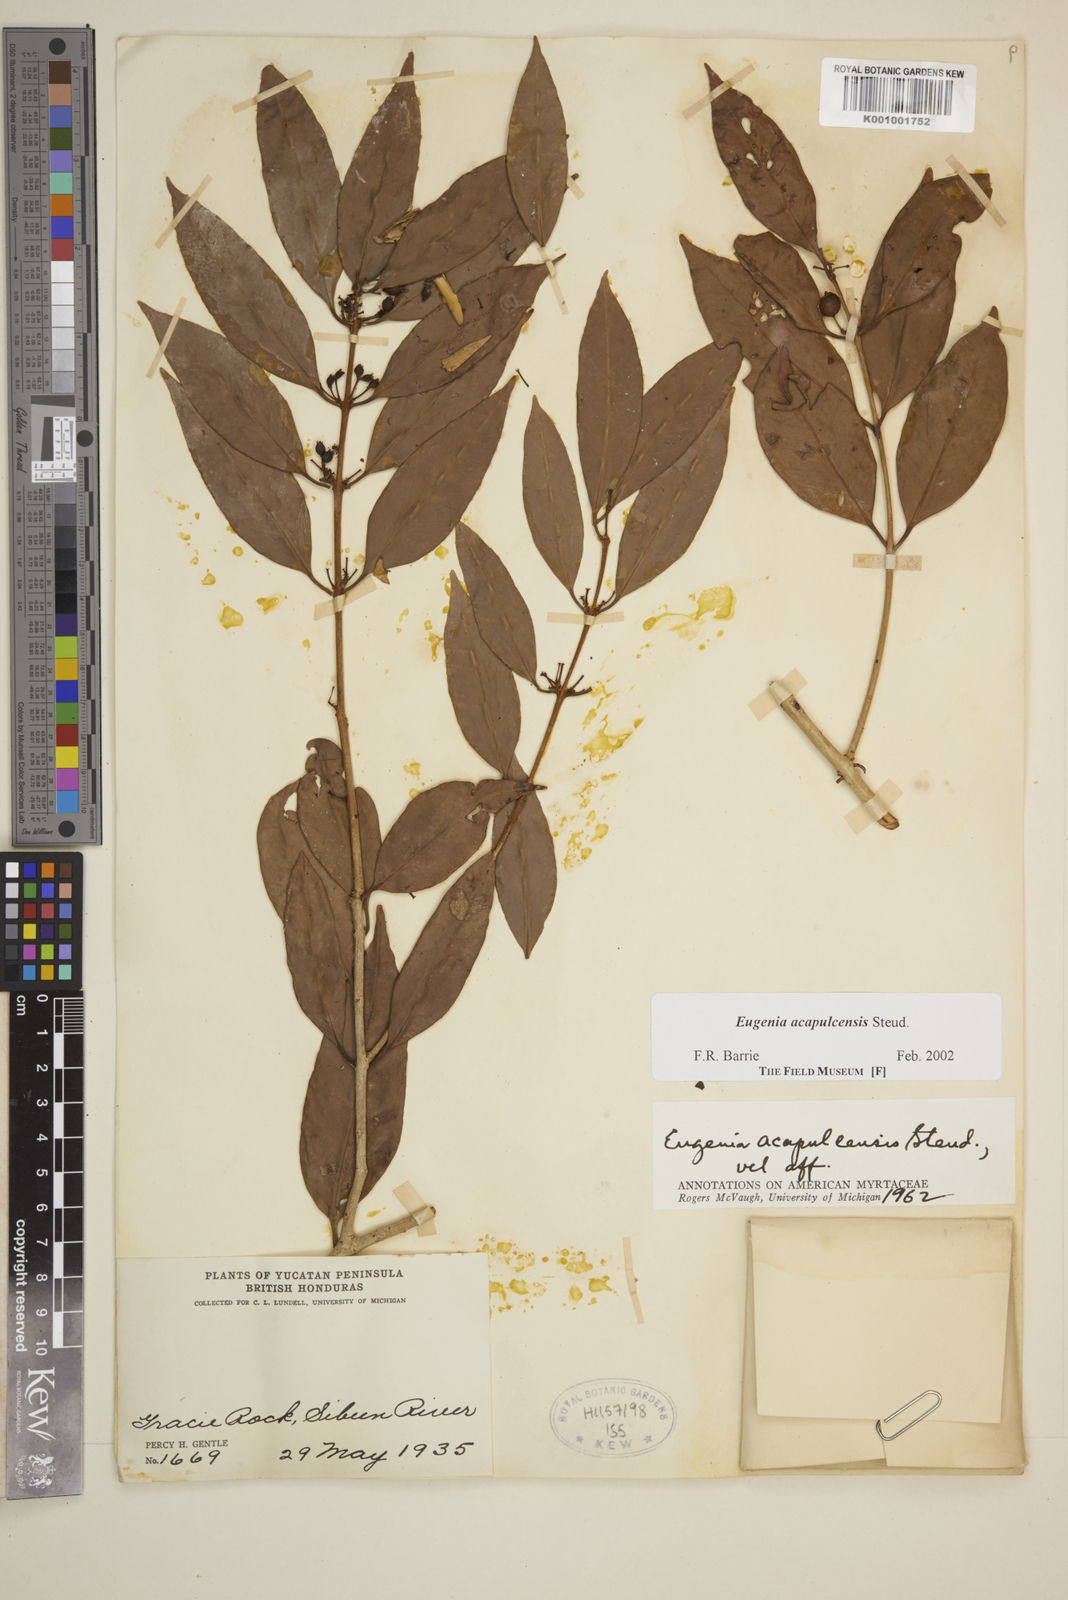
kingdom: Plantae
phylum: Tracheophyta
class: Magnoliopsida
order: Myrtales
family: Myrtaceae
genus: Eugenia
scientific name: Eugenia acapulcensis
